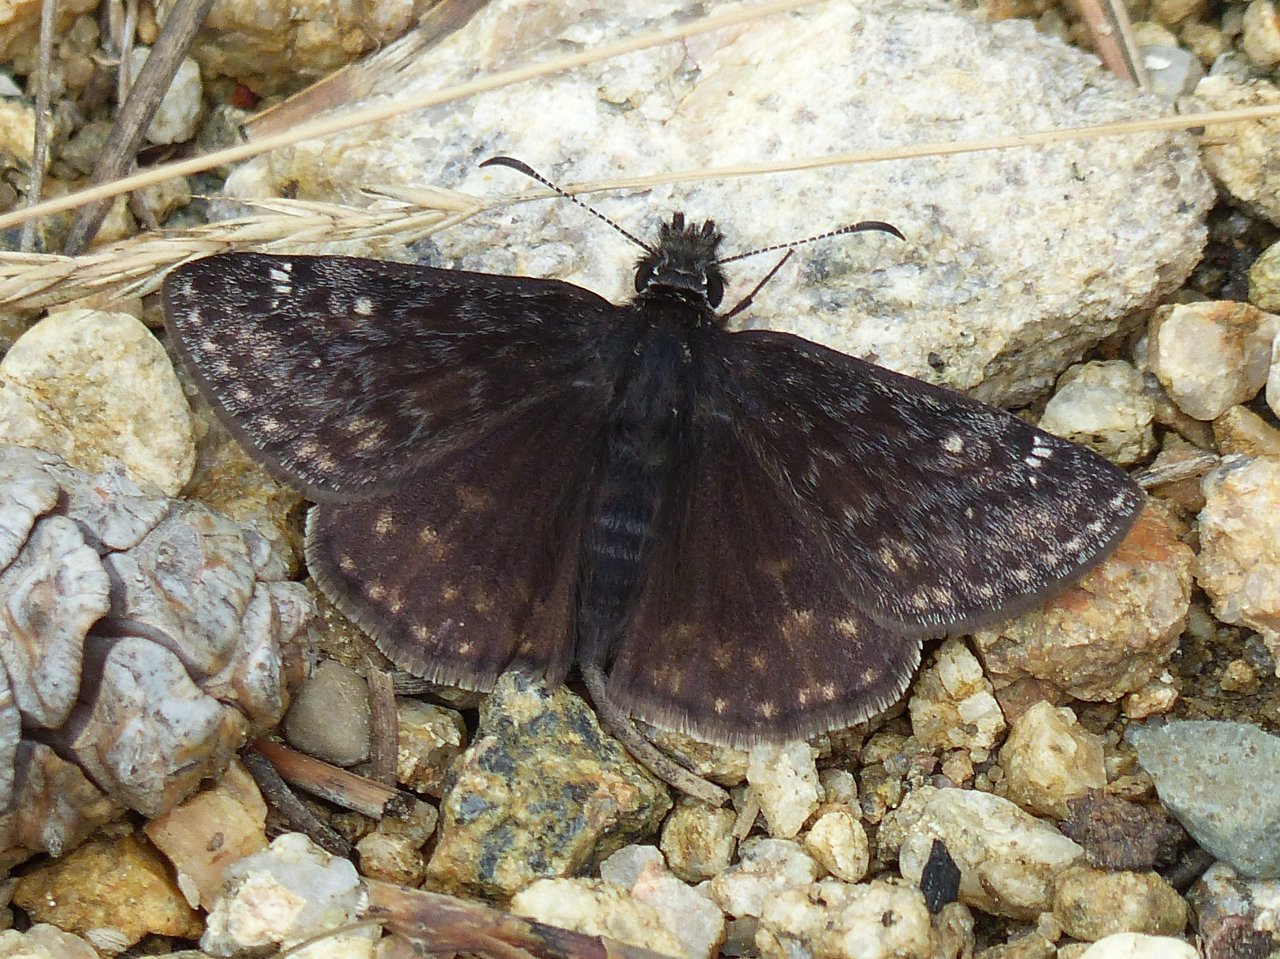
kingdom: Animalia
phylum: Arthropoda
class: Insecta
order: Lepidoptera
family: Hesperiidae
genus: Gesta
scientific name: Gesta
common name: Persius Duskywing
